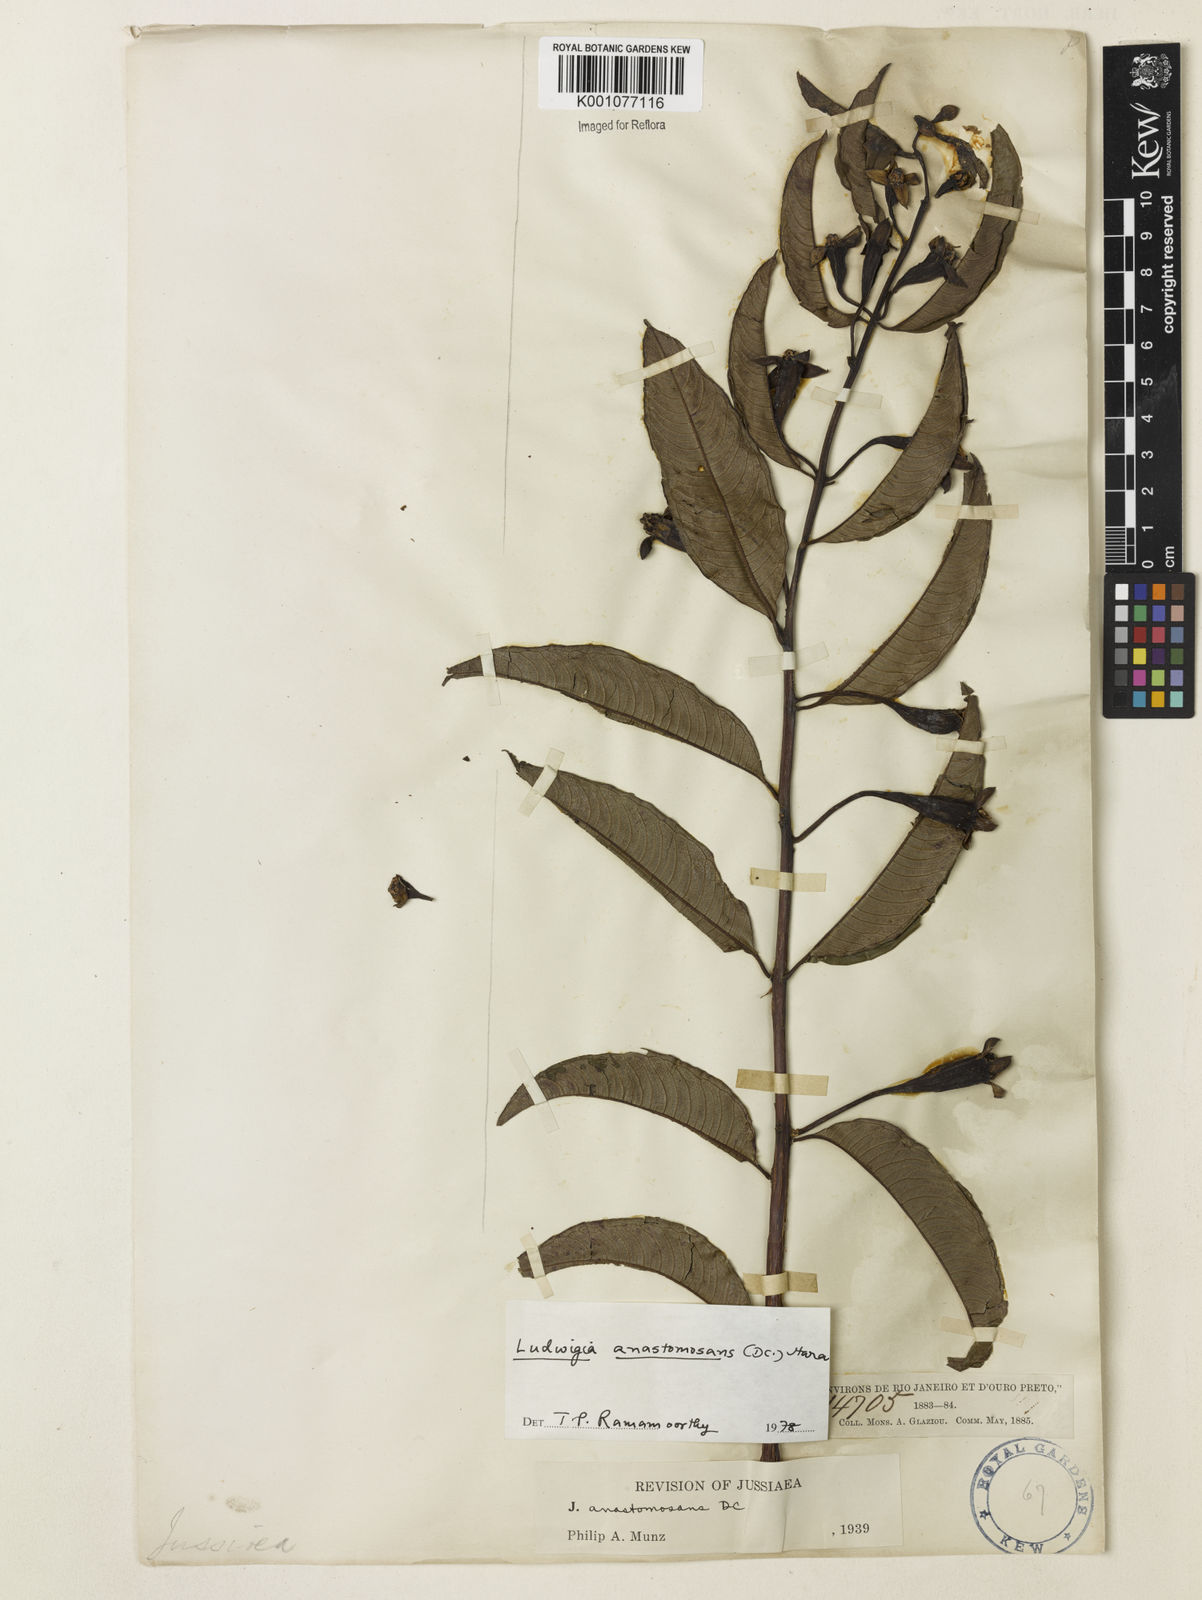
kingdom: Plantae
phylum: Tracheophyta
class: Magnoliopsida
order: Myrtales
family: Onagraceae
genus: Ludwigia
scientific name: Ludwigia anastomosans
